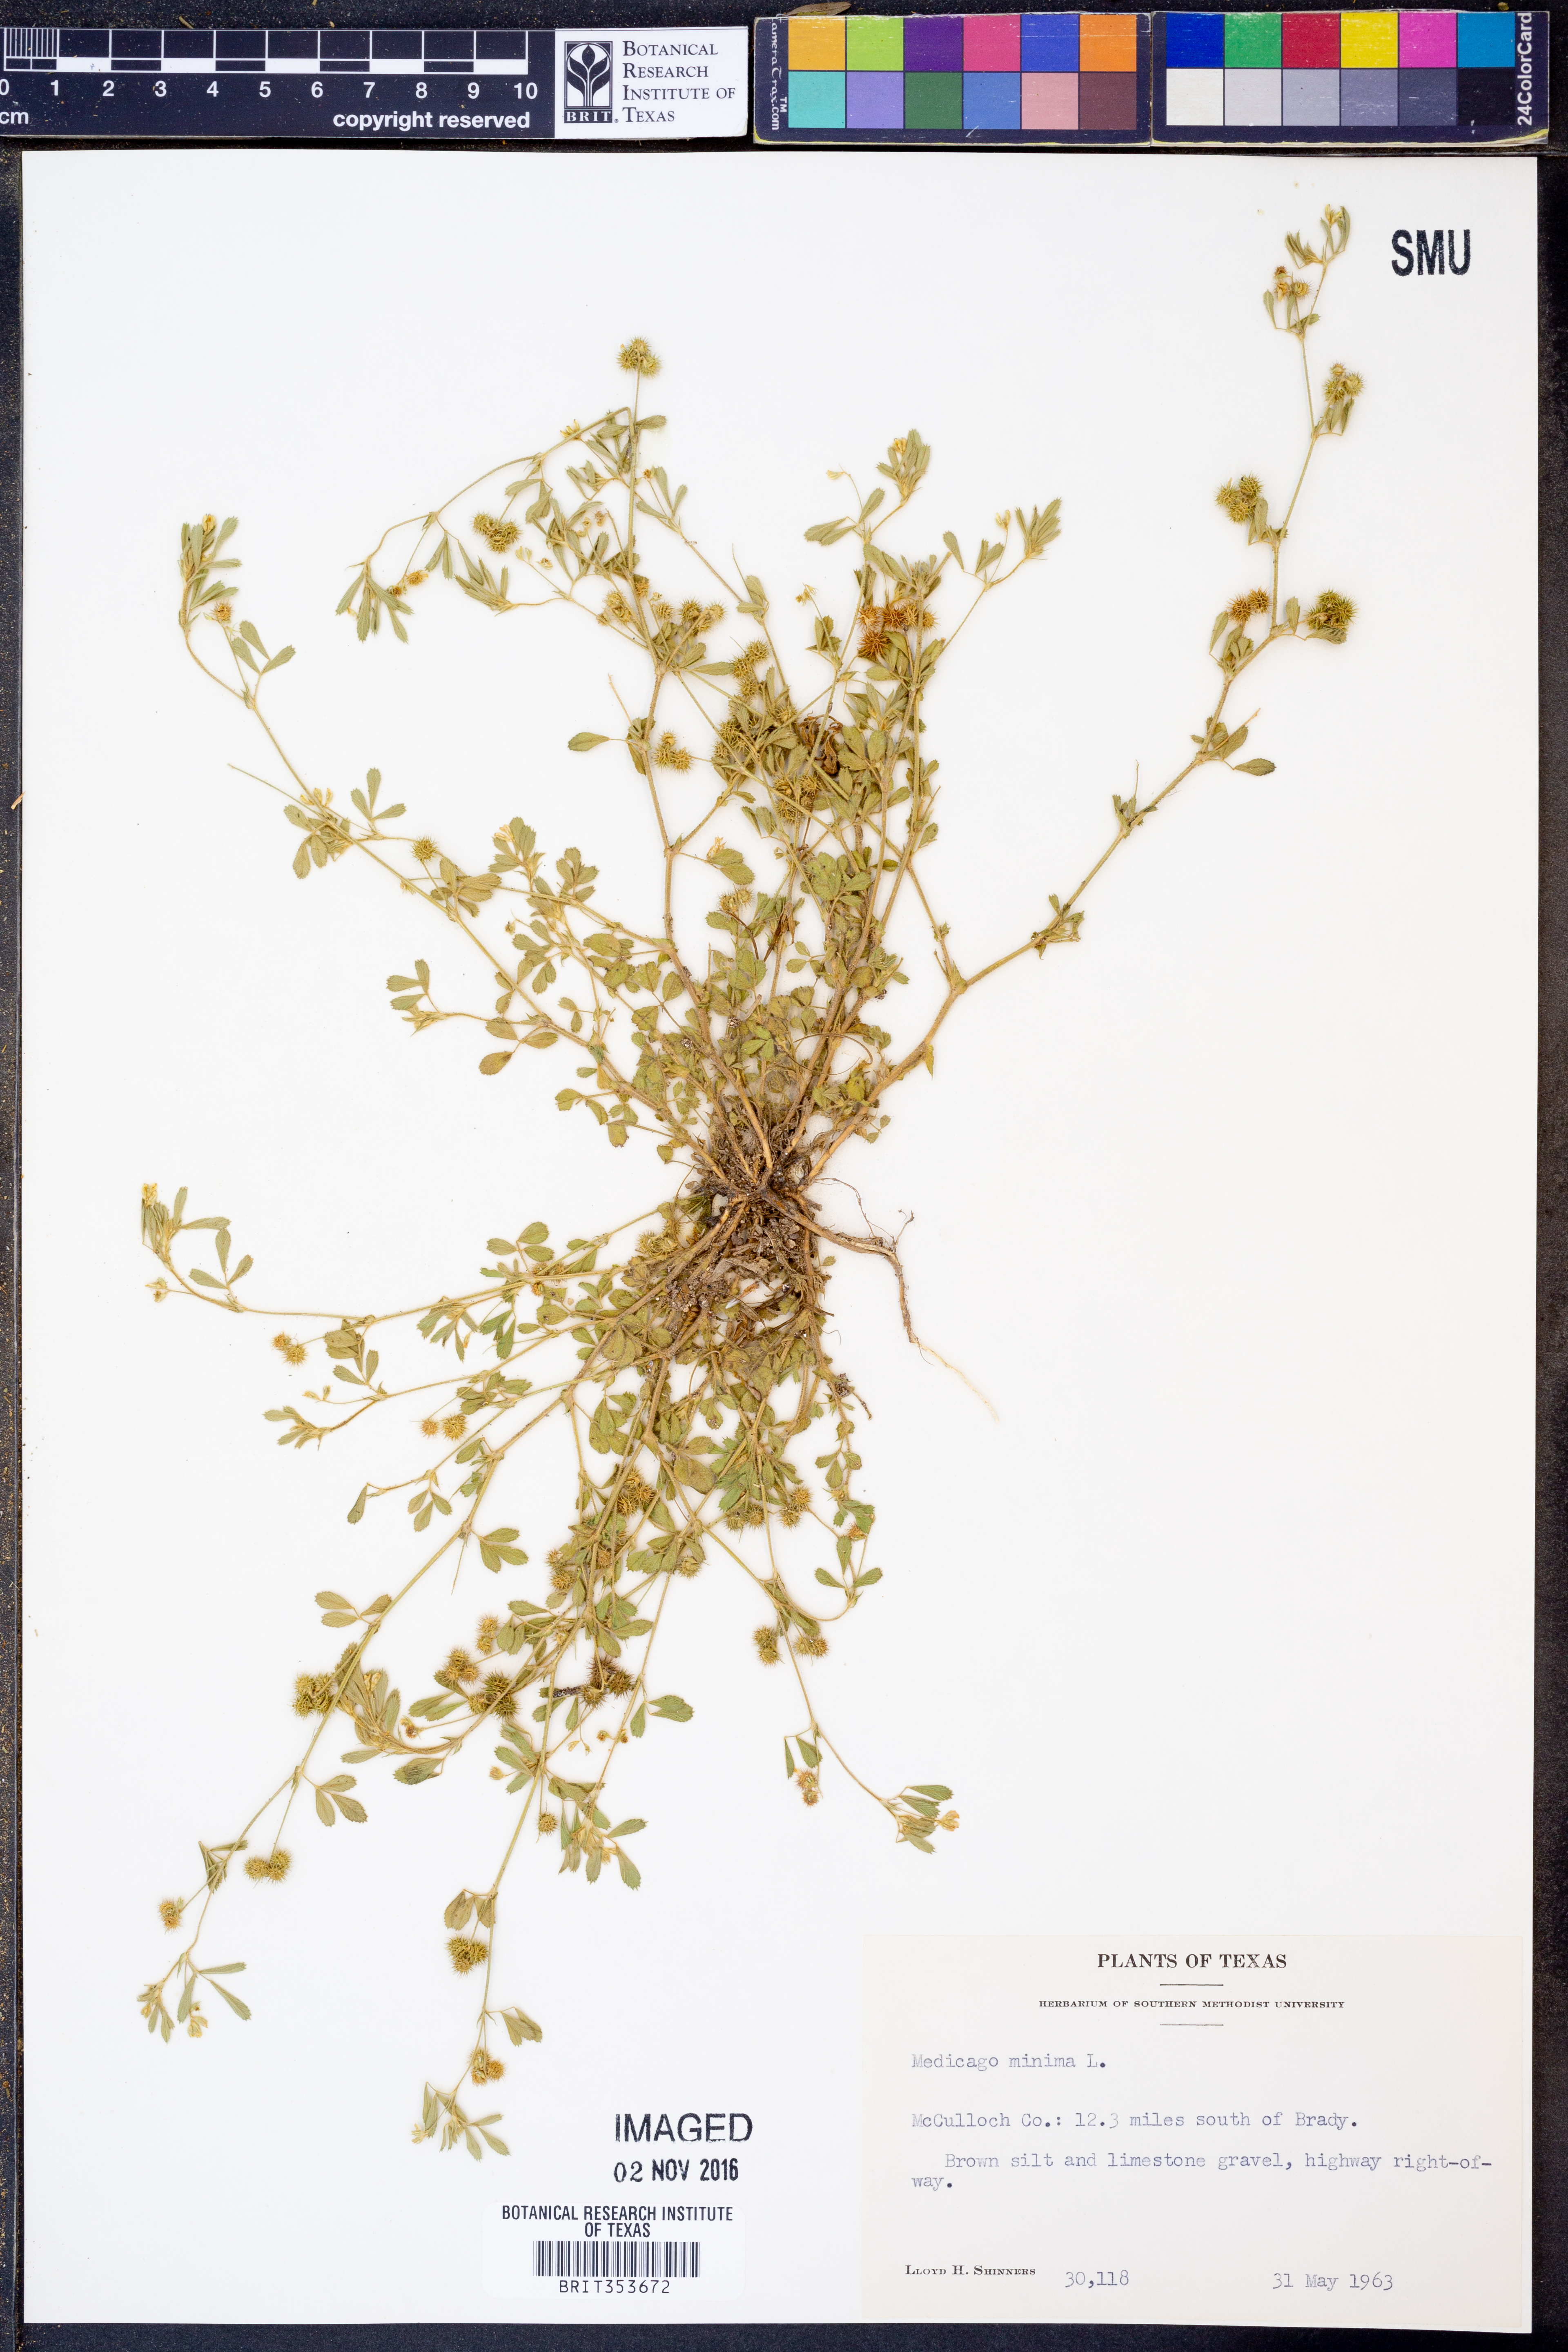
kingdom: Plantae
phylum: Tracheophyta
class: Magnoliopsida
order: Fabales
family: Fabaceae
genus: Medicago
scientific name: Medicago minima
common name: Little bur-clover
